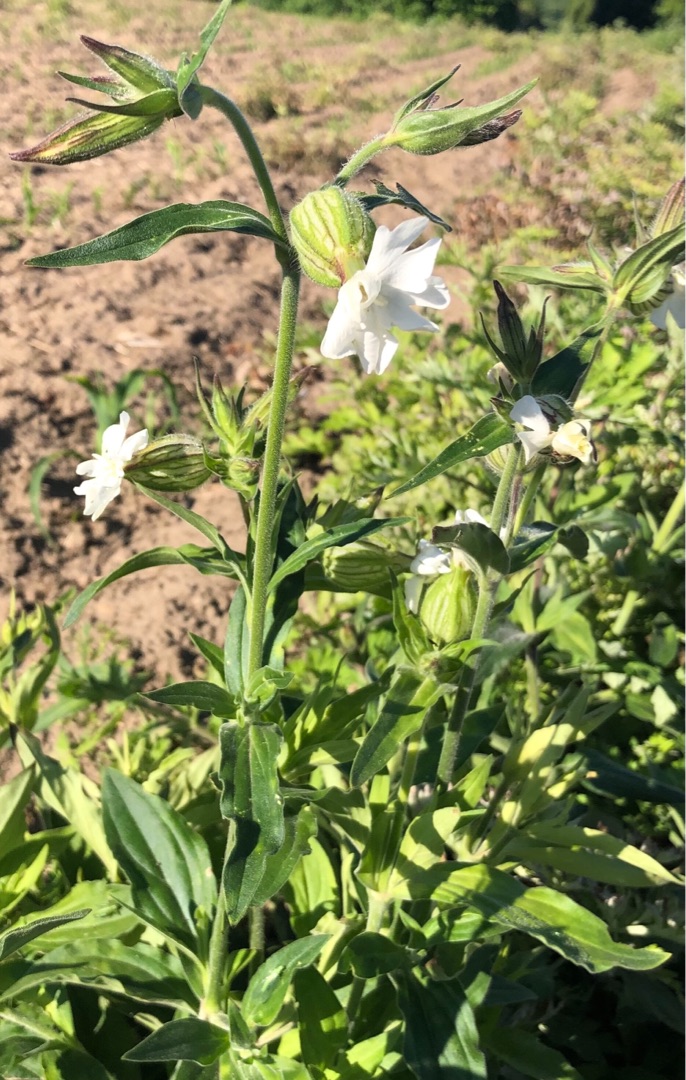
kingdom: Plantae
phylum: Tracheophyta
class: Magnoliopsida
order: Caryophyllales
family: Caryophyllaceae
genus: Silene
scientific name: Silene latifolia
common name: Aftenpragtstjerne
